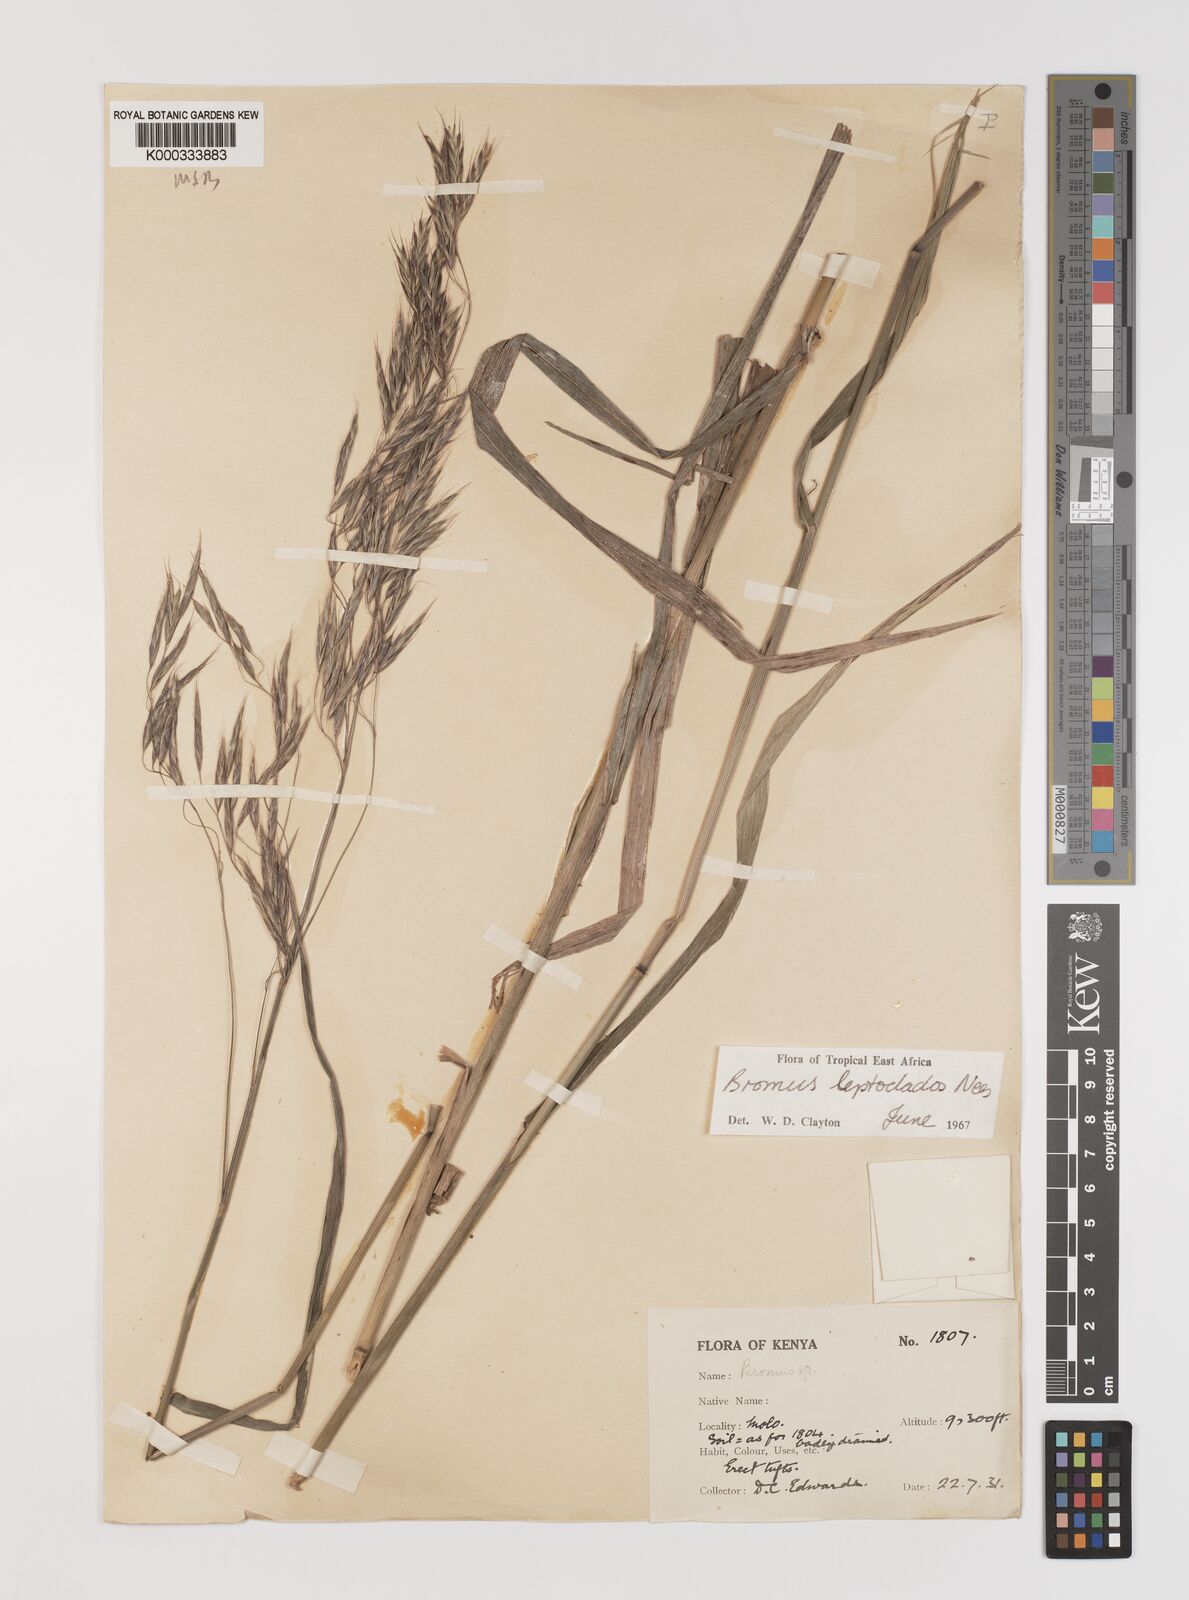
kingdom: Plantae
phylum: Tracheophyta
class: Liliopsida
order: Poales
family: Poaceae
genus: Bromus
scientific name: Bromus leptoclados
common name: Mountain bromegrass
